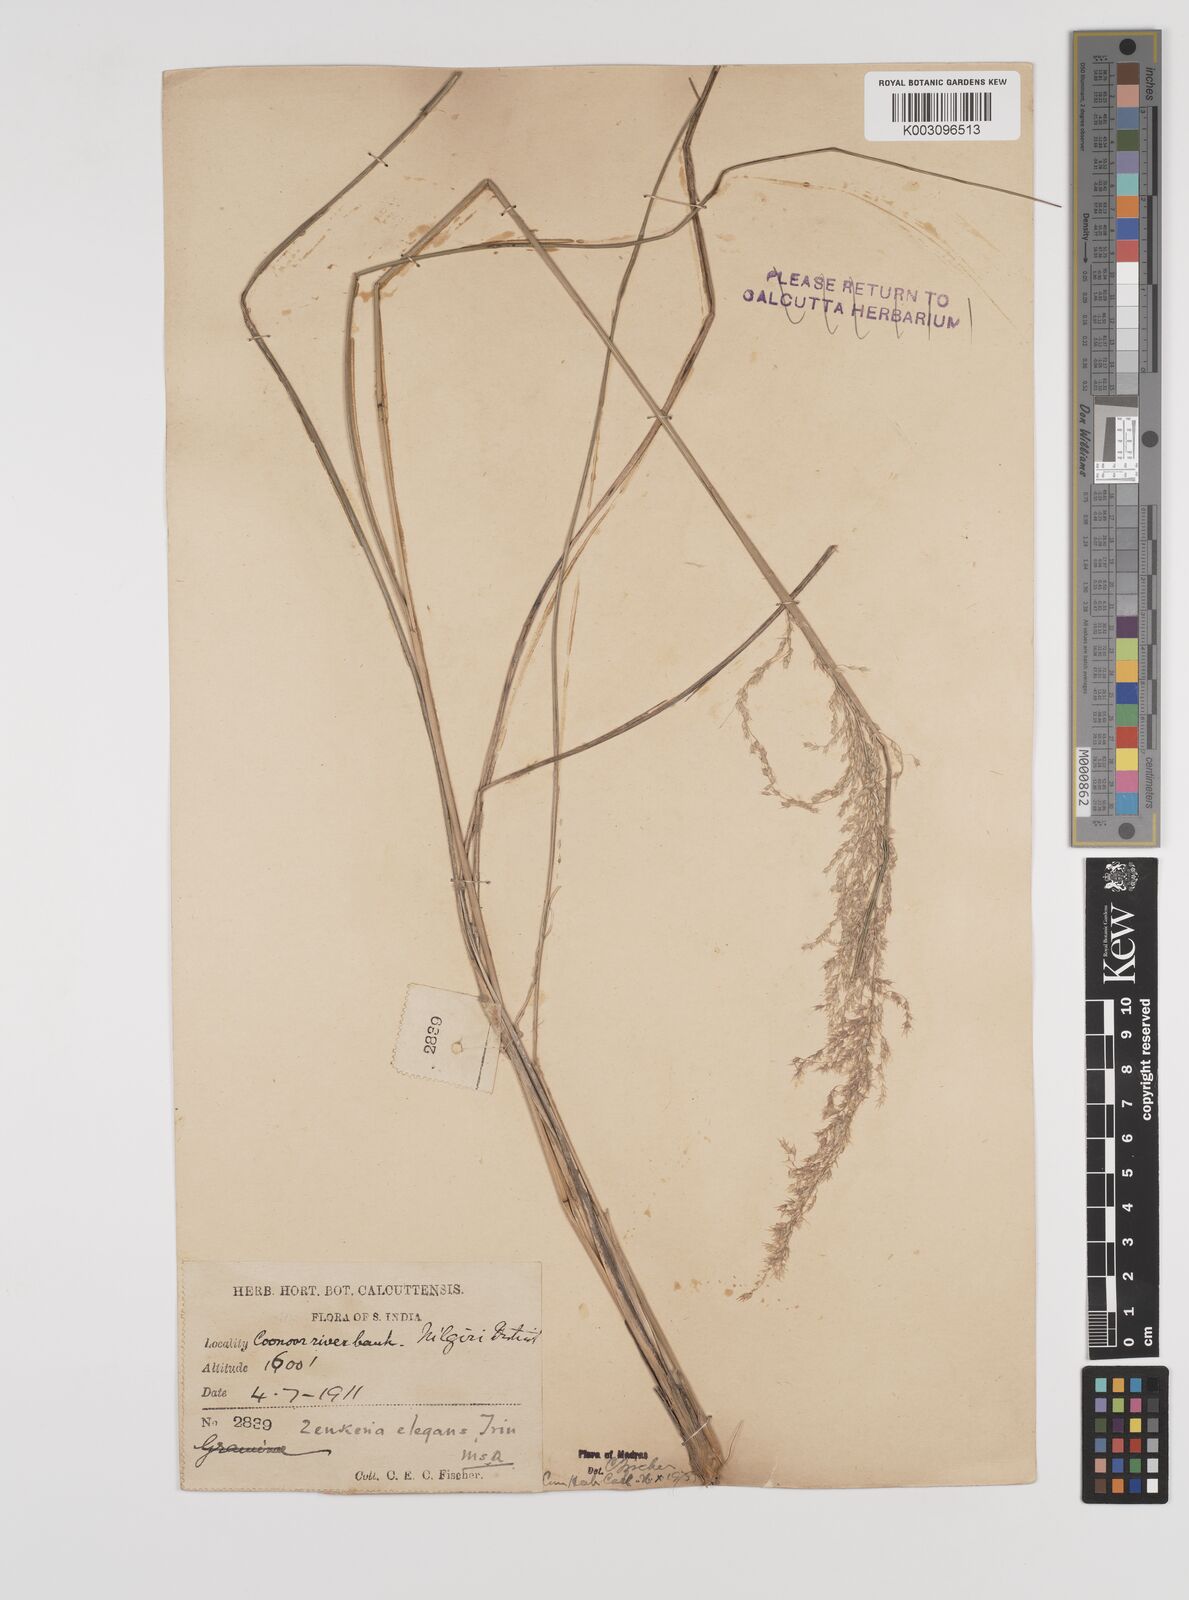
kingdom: Plantae
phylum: Tracheophyta
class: Liliopsida
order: Poales
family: Poaceae
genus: Zenkeria
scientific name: Zenkeria elegans
